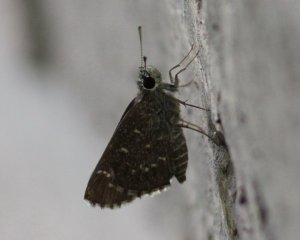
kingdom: Animalia
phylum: Arthropoda
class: Insecta
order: Lepidoptera
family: Hesperiidae
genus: Mastor
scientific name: Mastor celia
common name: Celia's Roadside-Skipper
